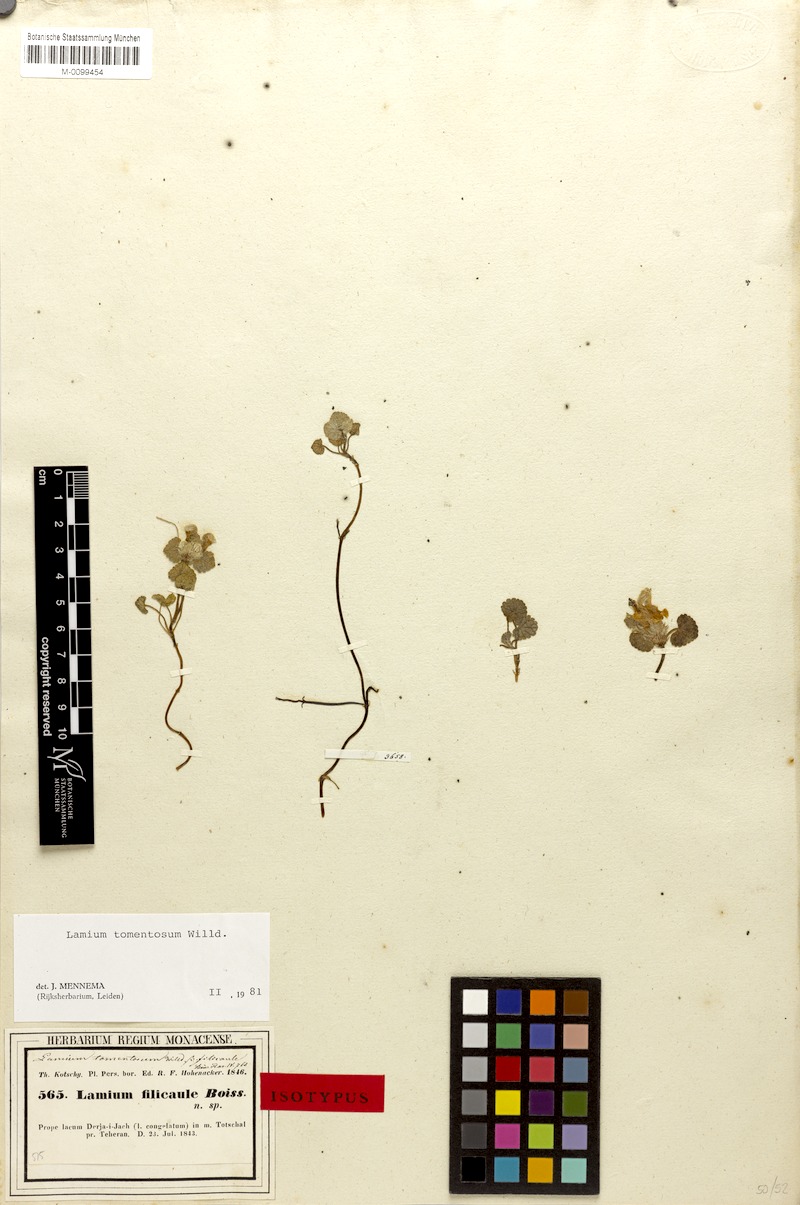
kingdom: Plantae
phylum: Tracheophyta
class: Magnoliopsida
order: Lamiales
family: Lamiaceae
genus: Lamium
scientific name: Lamium tomentosum
